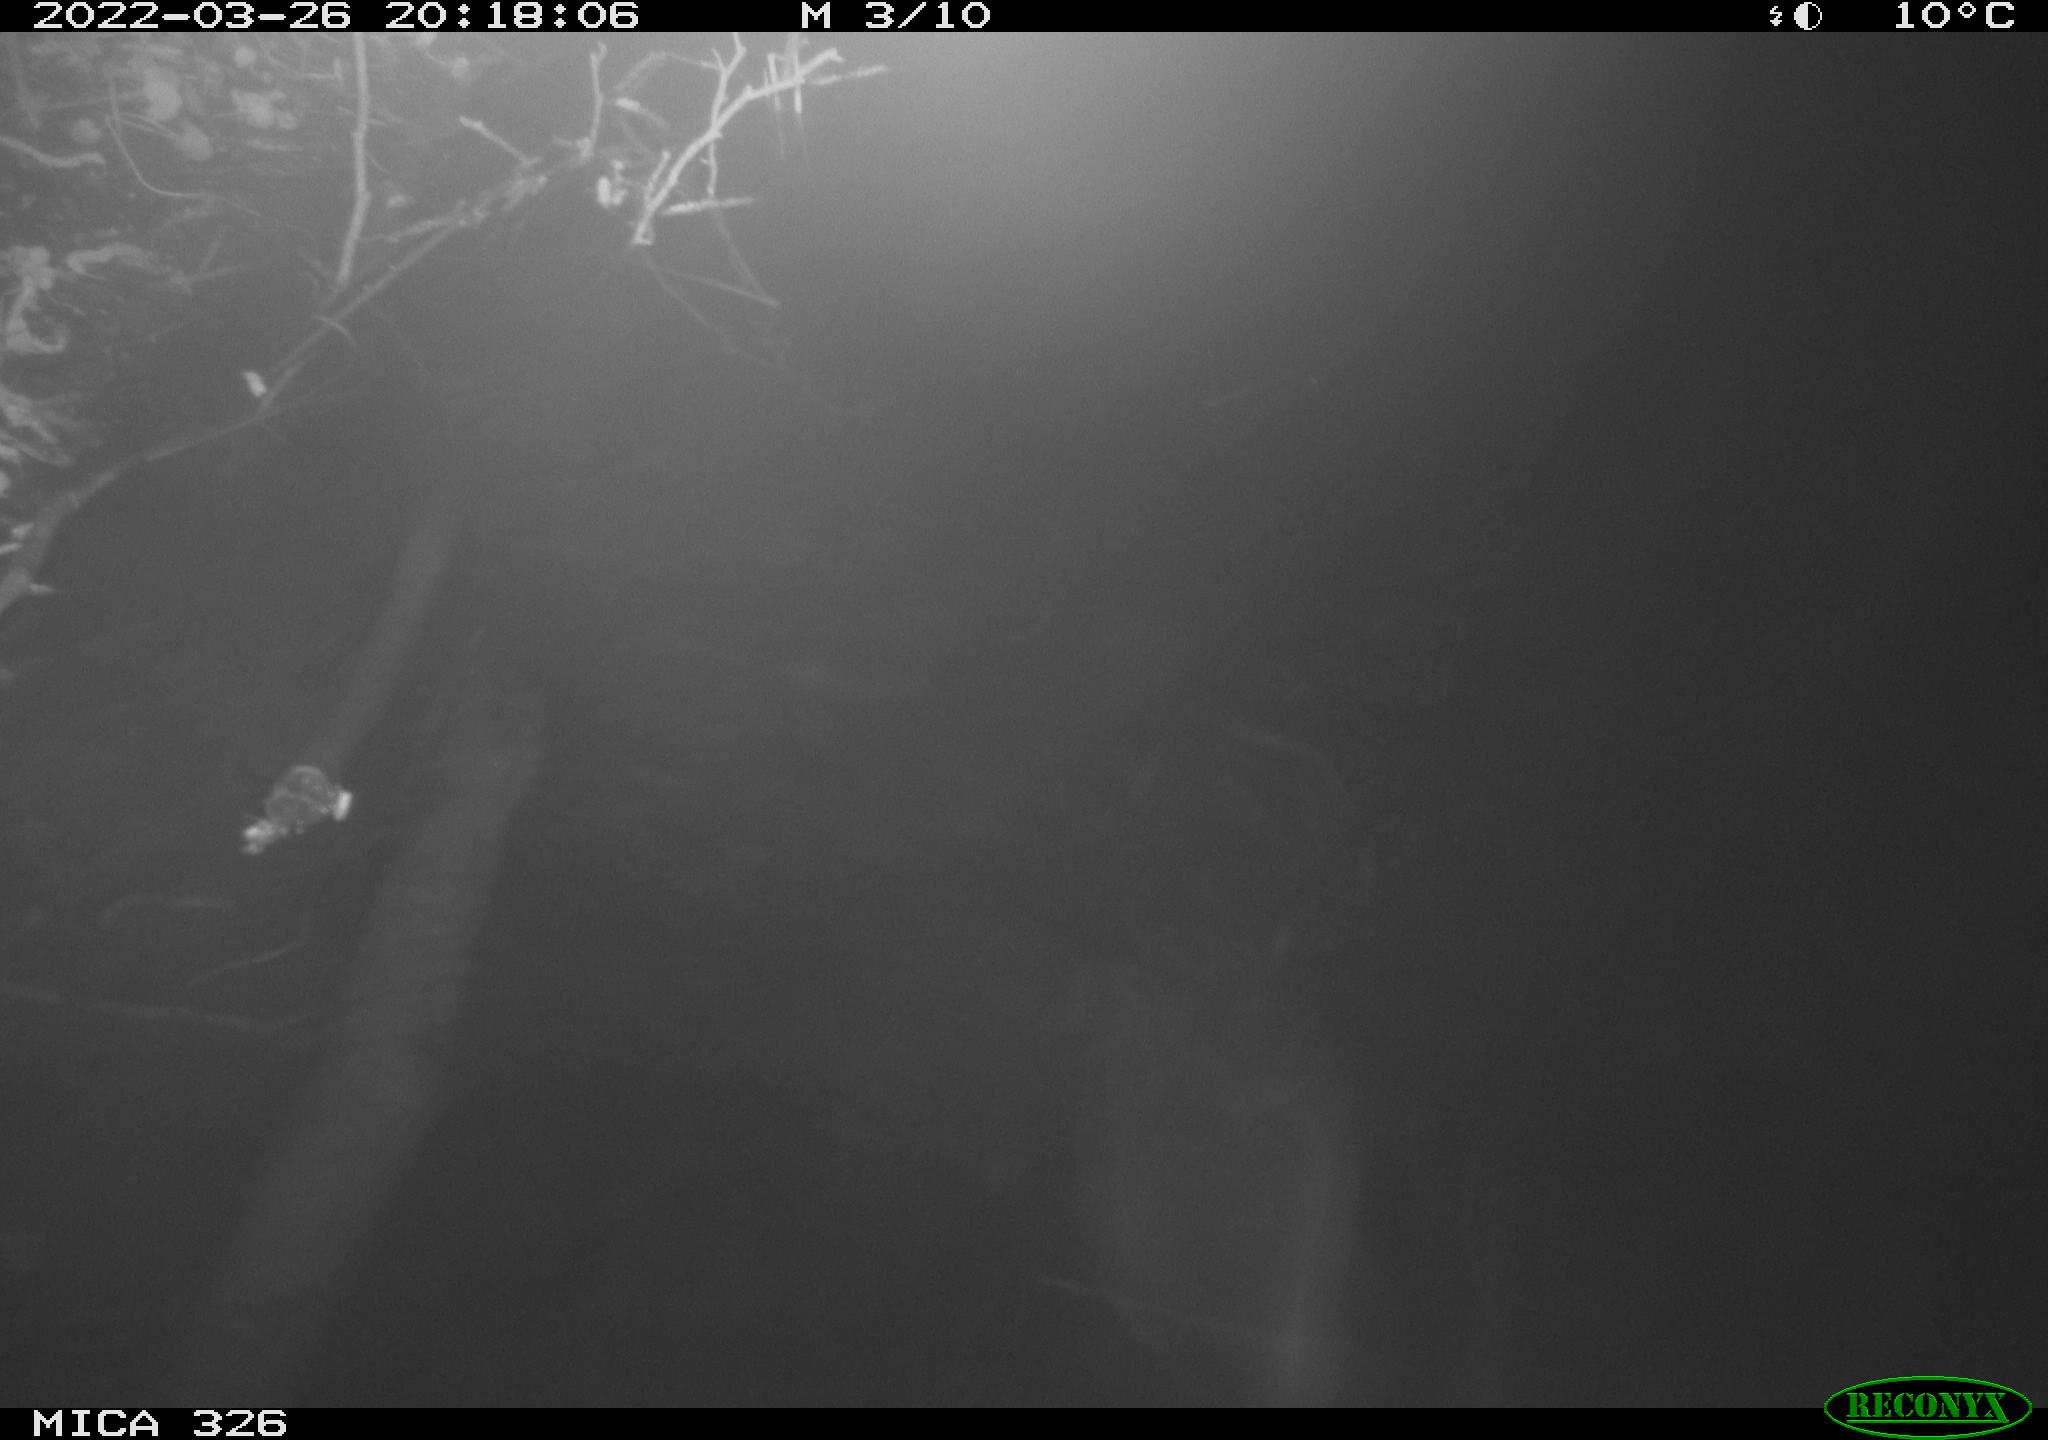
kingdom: Animalia
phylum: Chordata
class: Mammalia
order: Rodentia
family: Muridae
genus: Rattus
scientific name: Rattus norvegicus
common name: Brown rat
